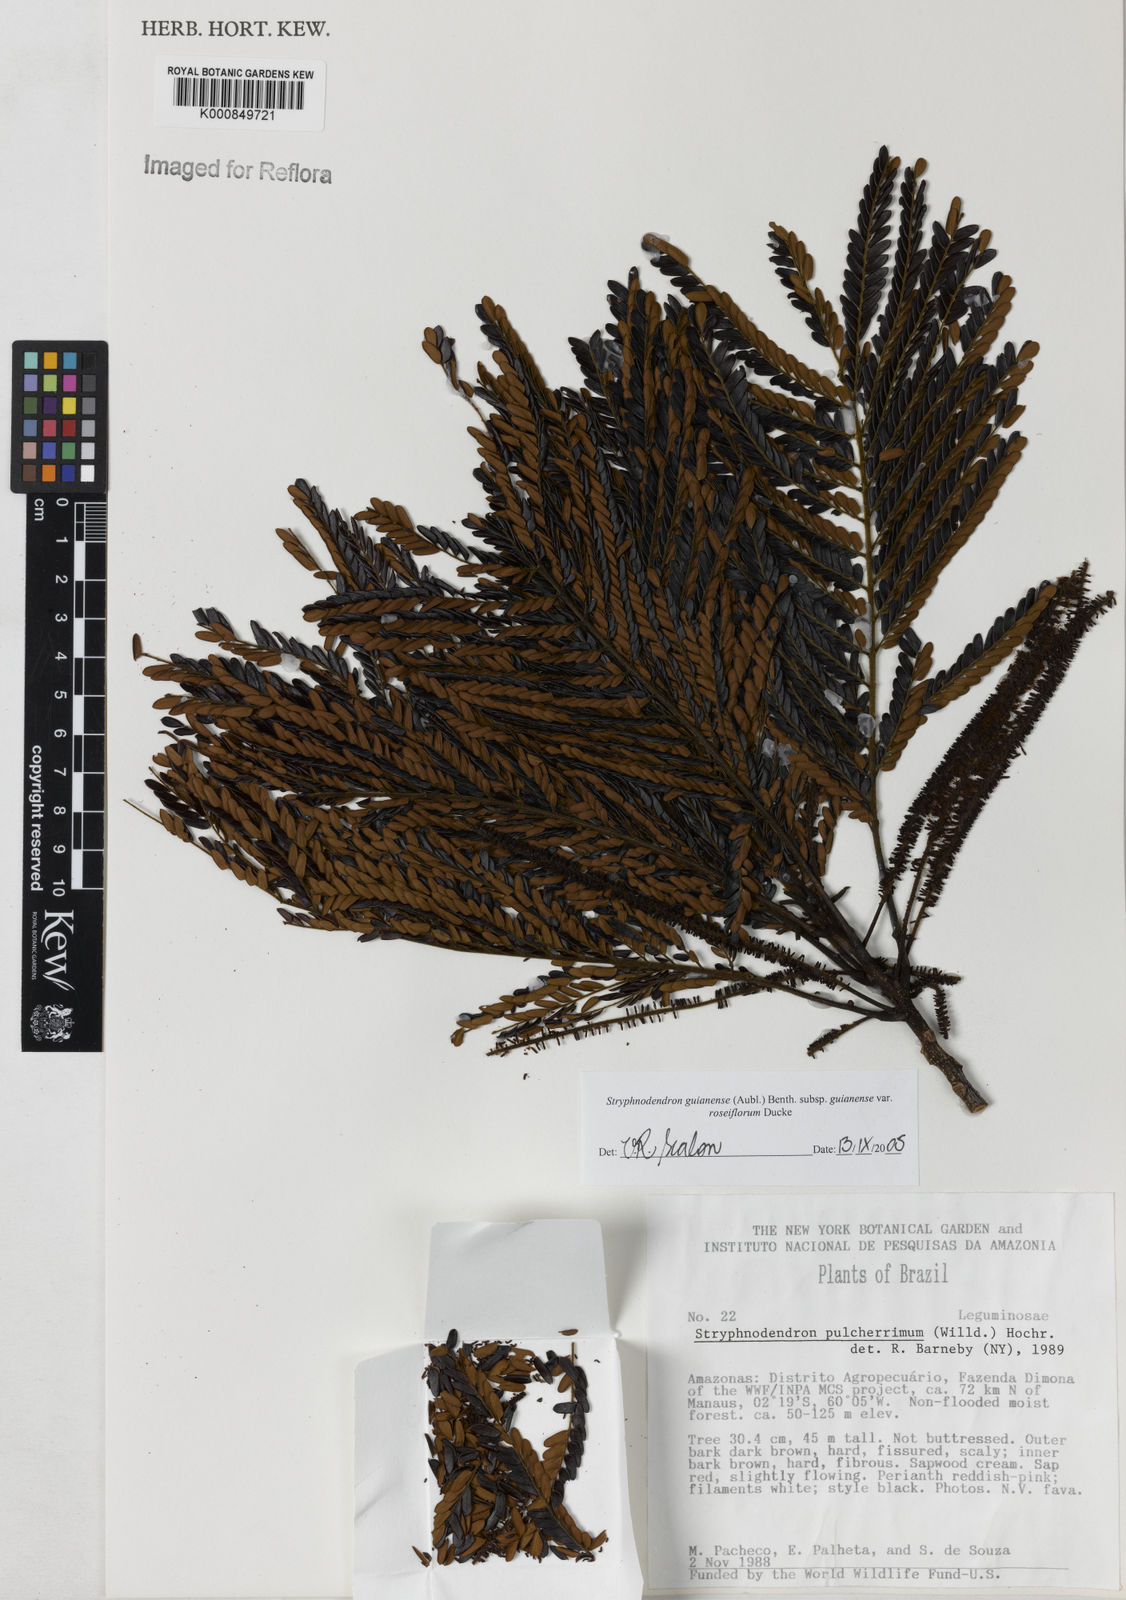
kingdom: Plantae
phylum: Tracheophyta
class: Magnoliopsida
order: Fabales
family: Fabaceae
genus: Stryphnodendron
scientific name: Stryphnodendron guianense
